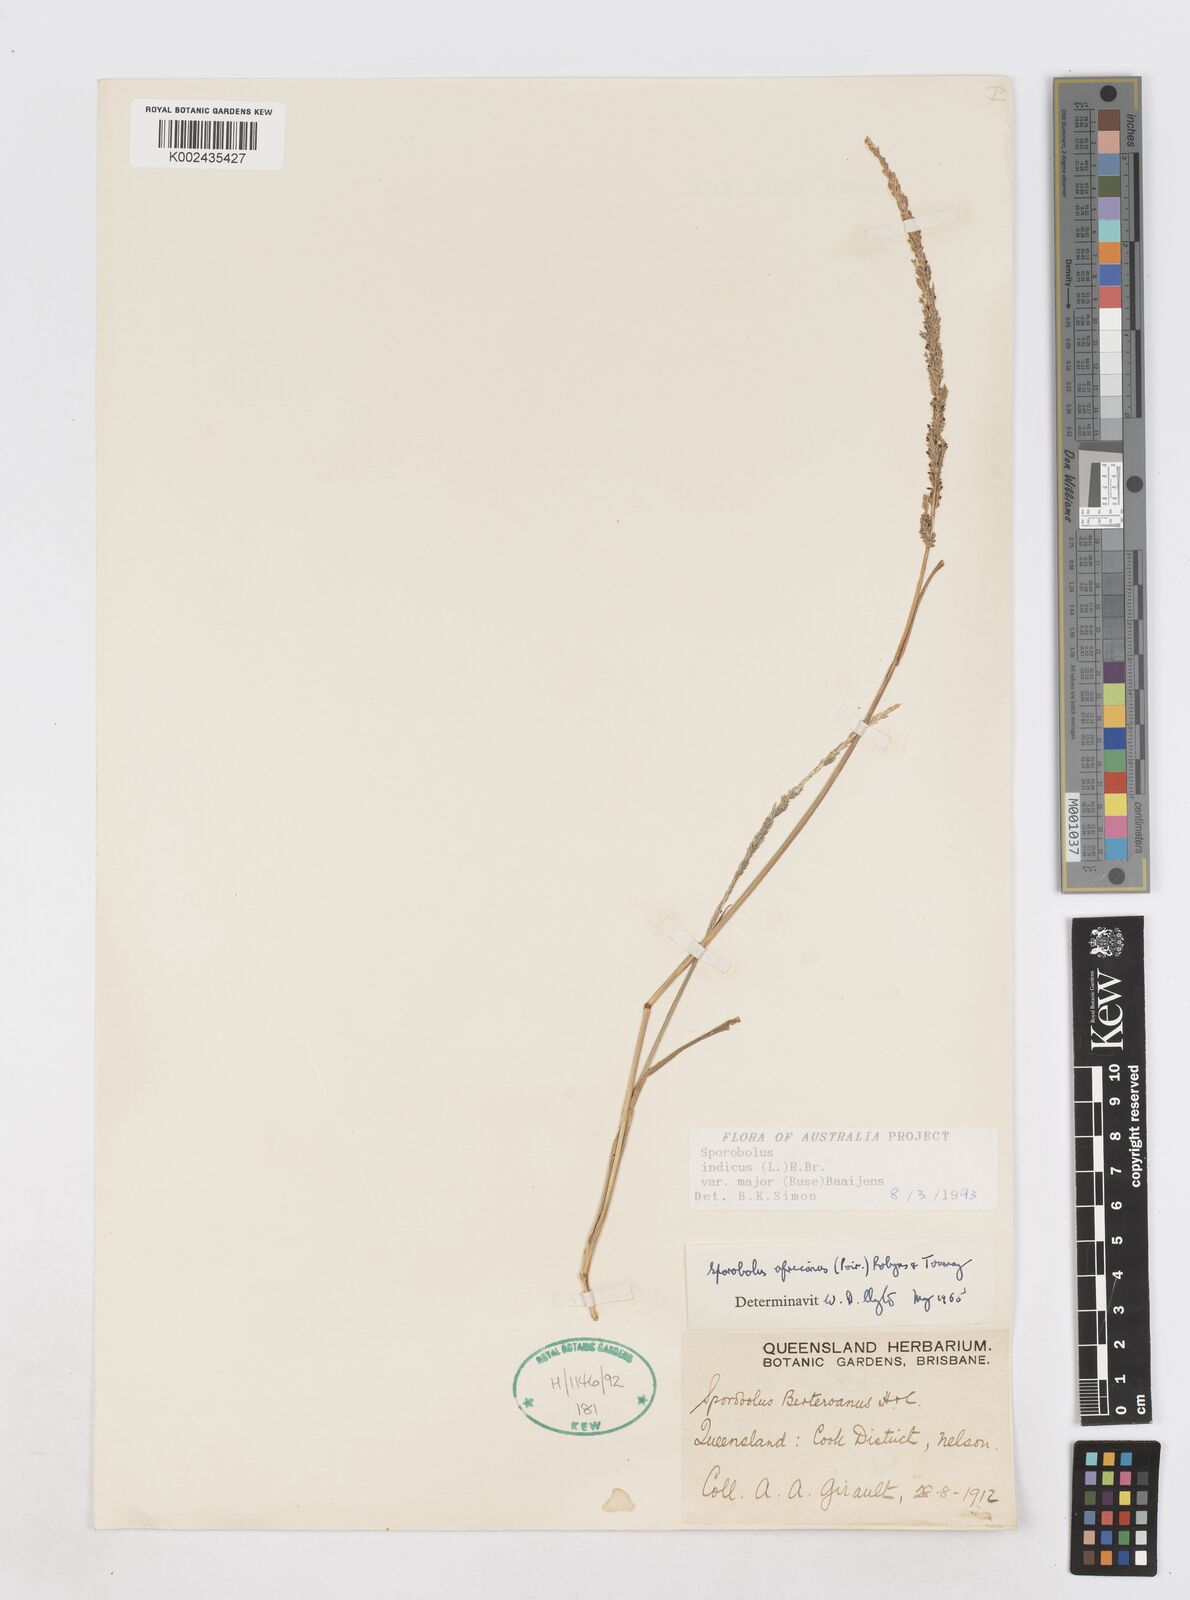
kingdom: Plantae
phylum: Tracheophyta
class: Liliopsida
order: Poales
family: Poaceae
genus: Sporobolus
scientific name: Sporobolus fertilis
